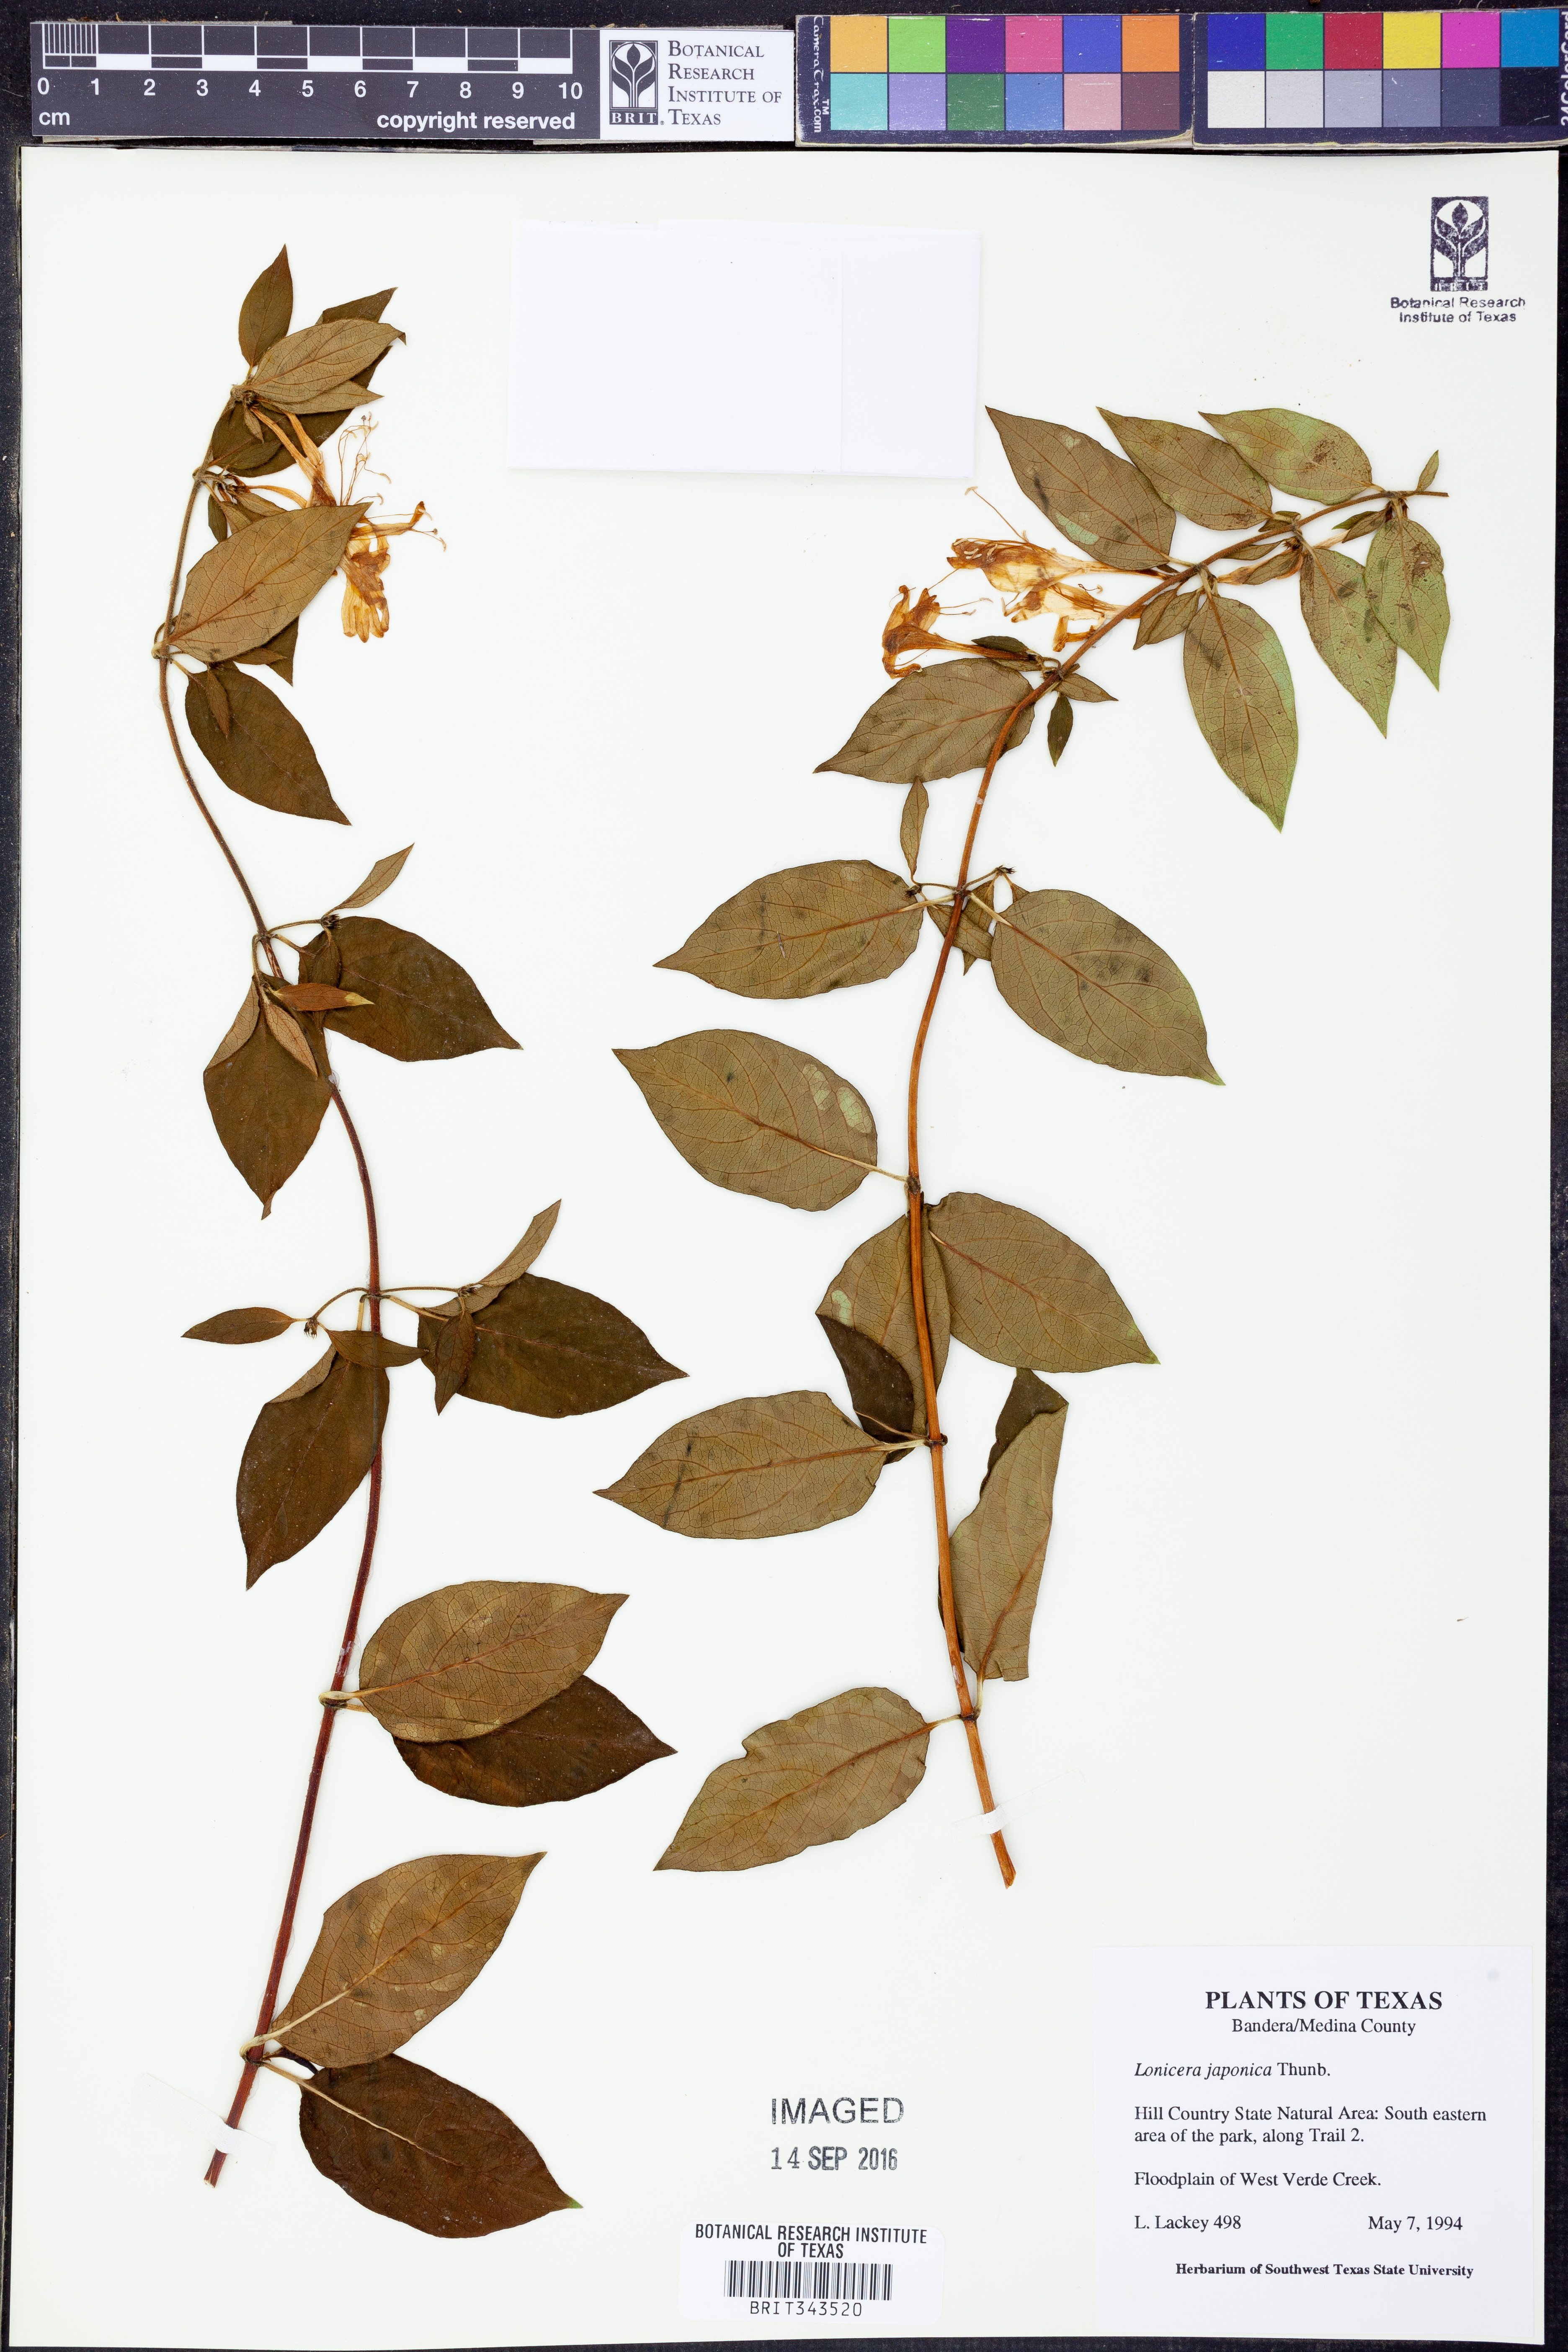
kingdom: Plantae
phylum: Tracheophyta
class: Magnoliopsida
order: Dipsacales
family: Caprifoliaceae
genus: Lonicera
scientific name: Lonicera japonica
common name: Japanese honeysuckle
